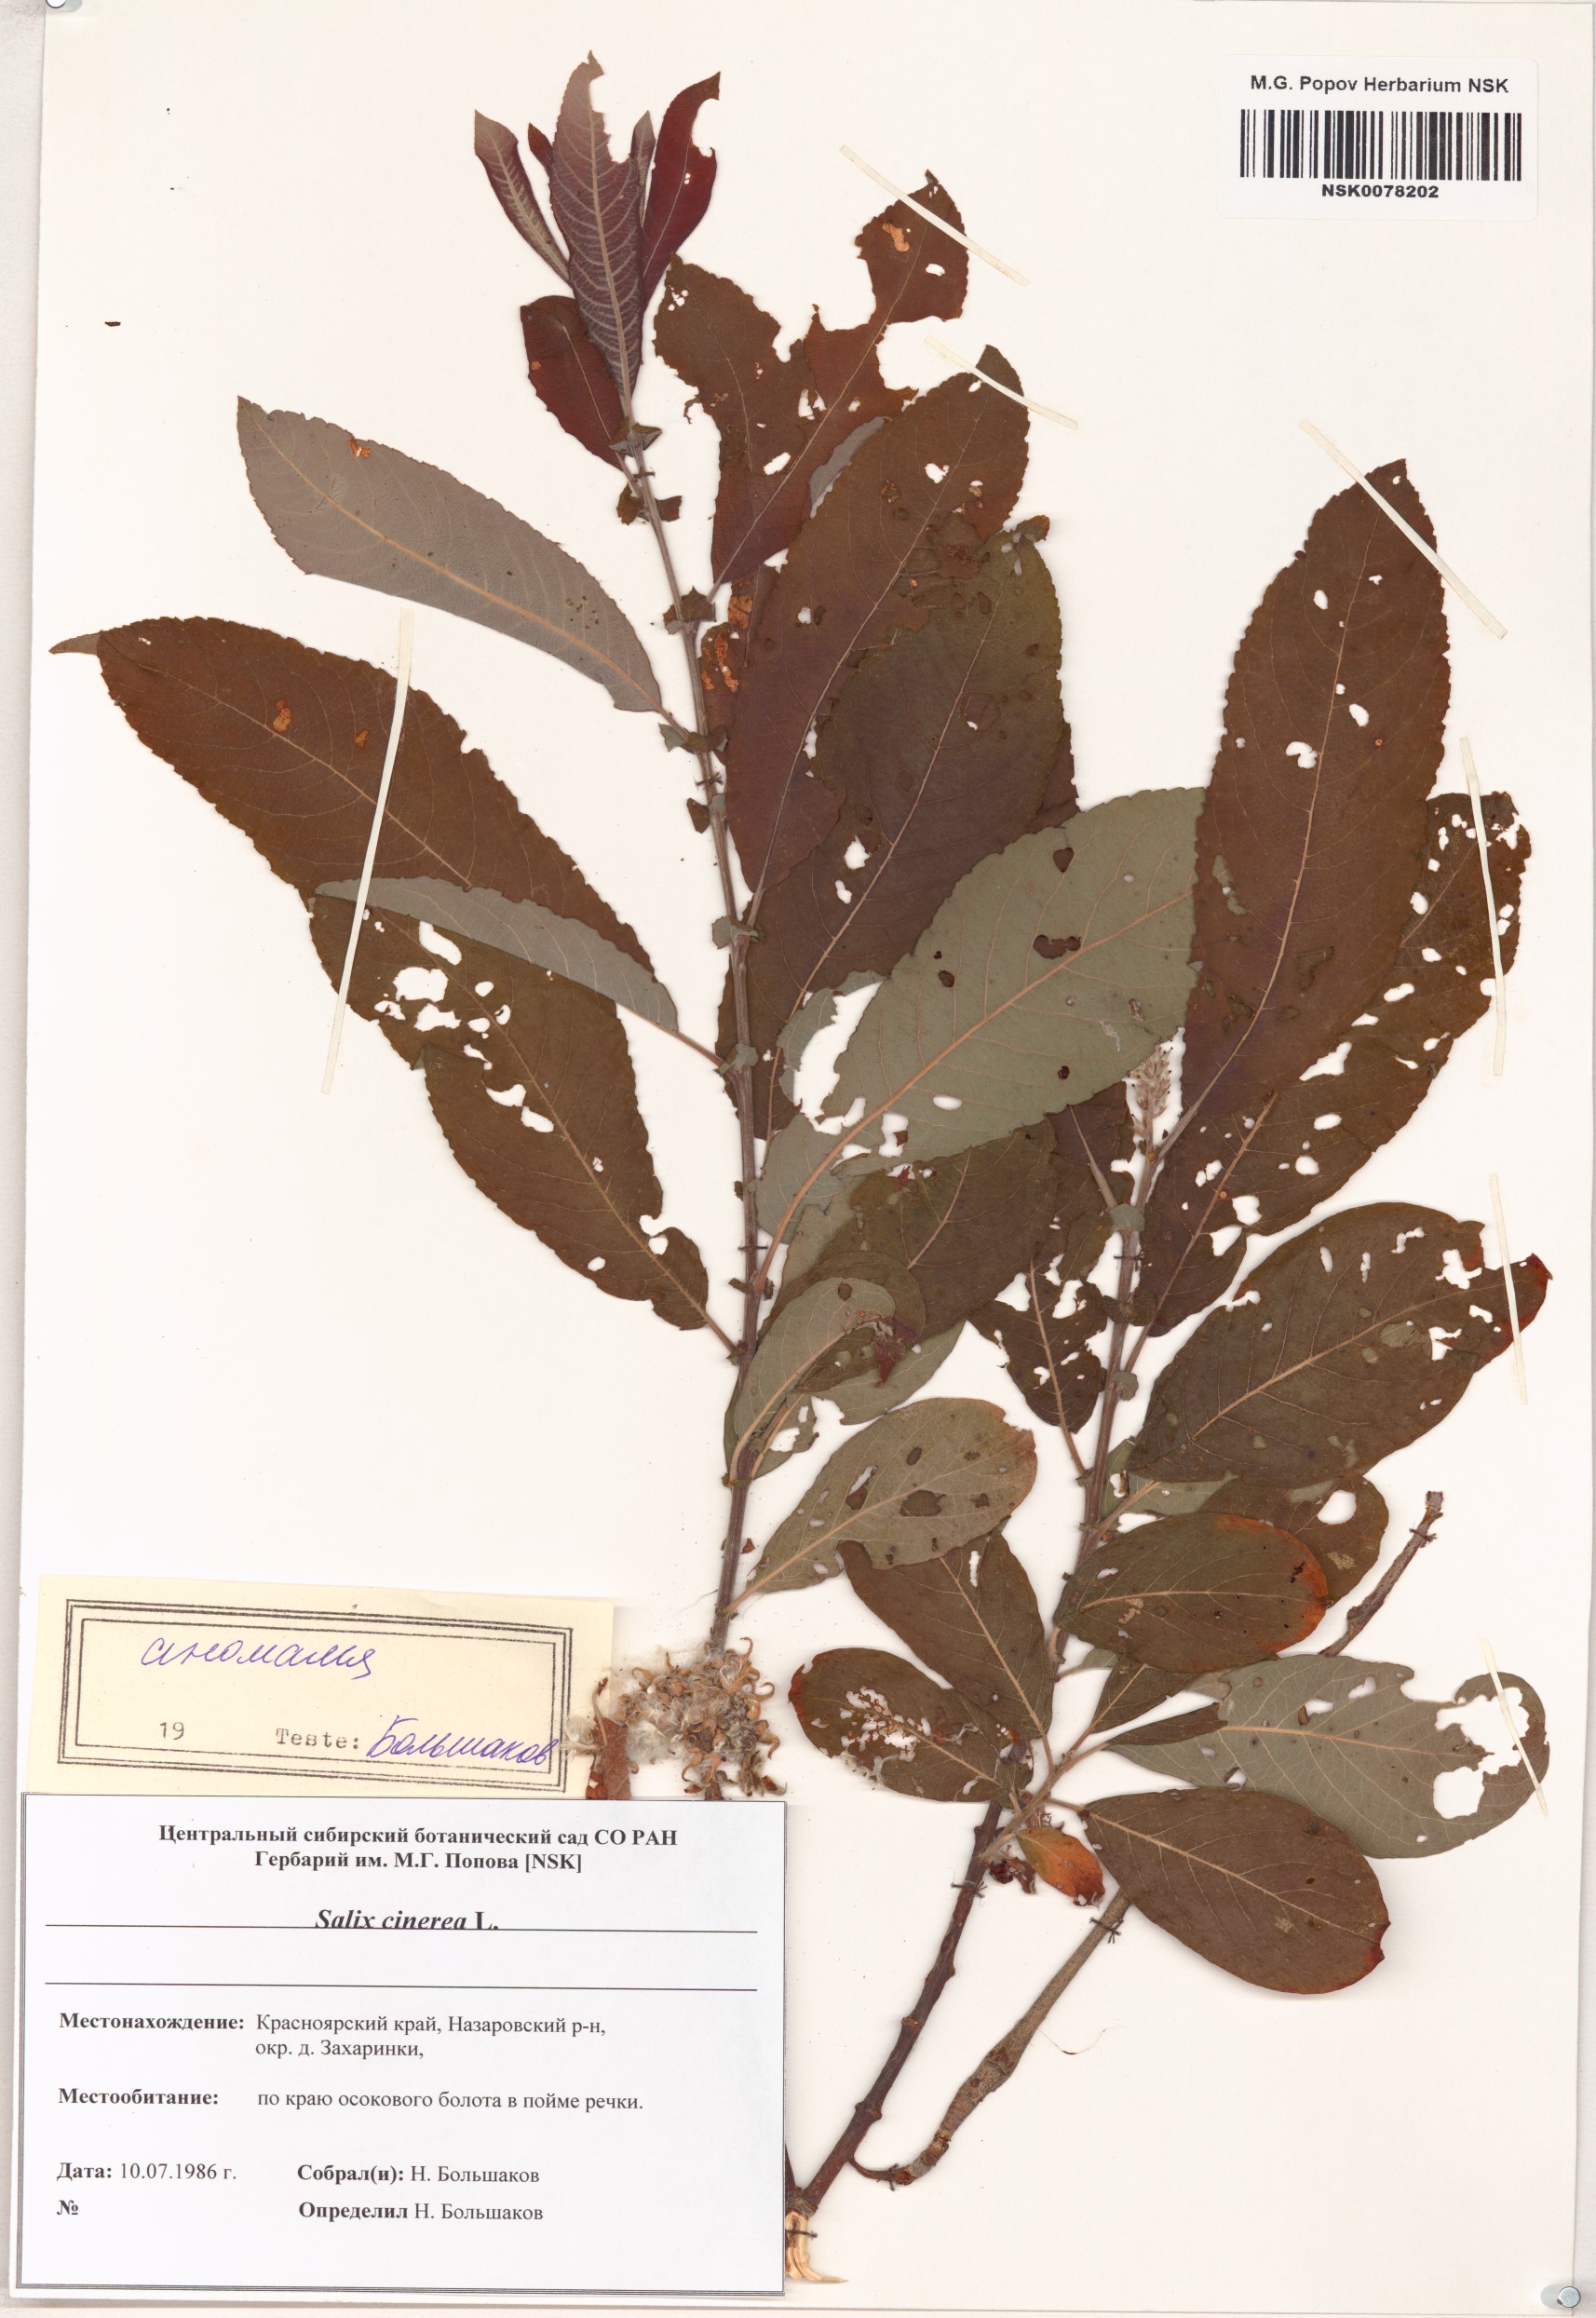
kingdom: Plantae
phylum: Tracheophyta
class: Magnoliopsida
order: Malpighiales
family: Salicaceae
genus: Salix
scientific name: Salix cinerea
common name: Common sallow
